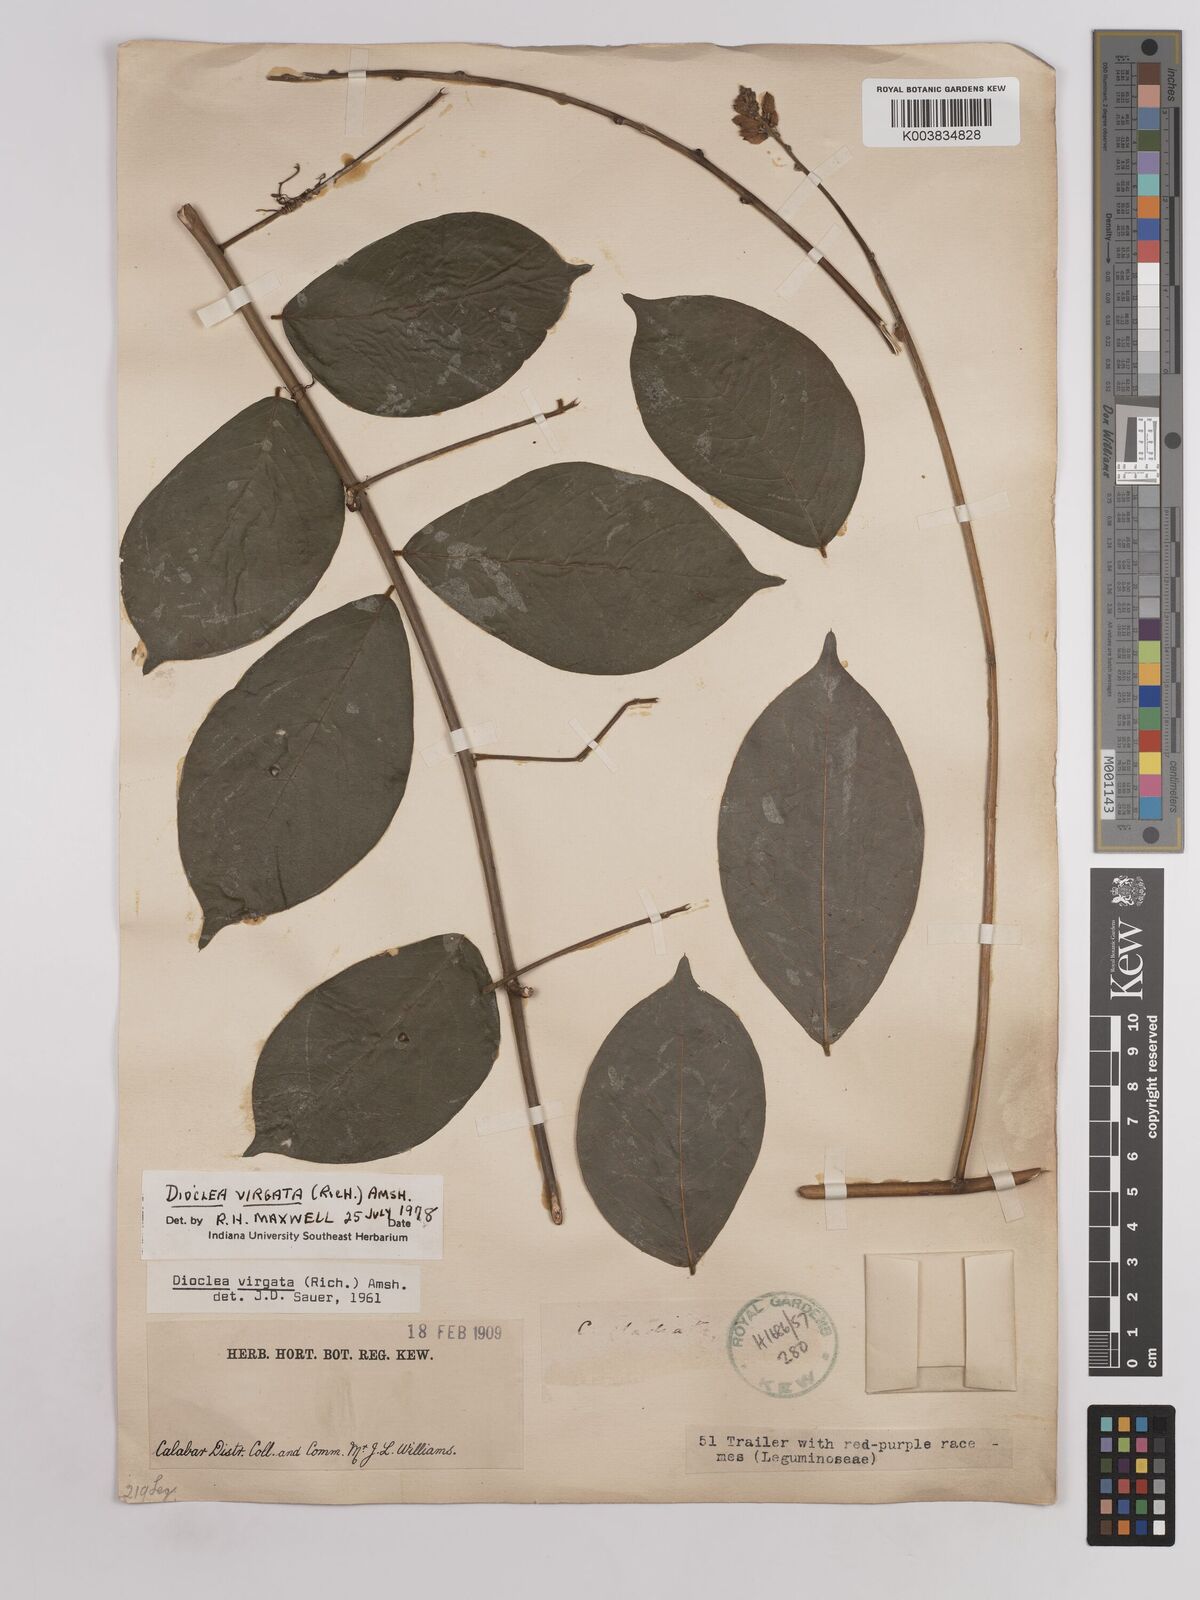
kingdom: Plantae
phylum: Tracheophyta
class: Magnoliopsida
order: Fabales
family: Fabaceae
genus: Dioclea
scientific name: Dioclea virgata
